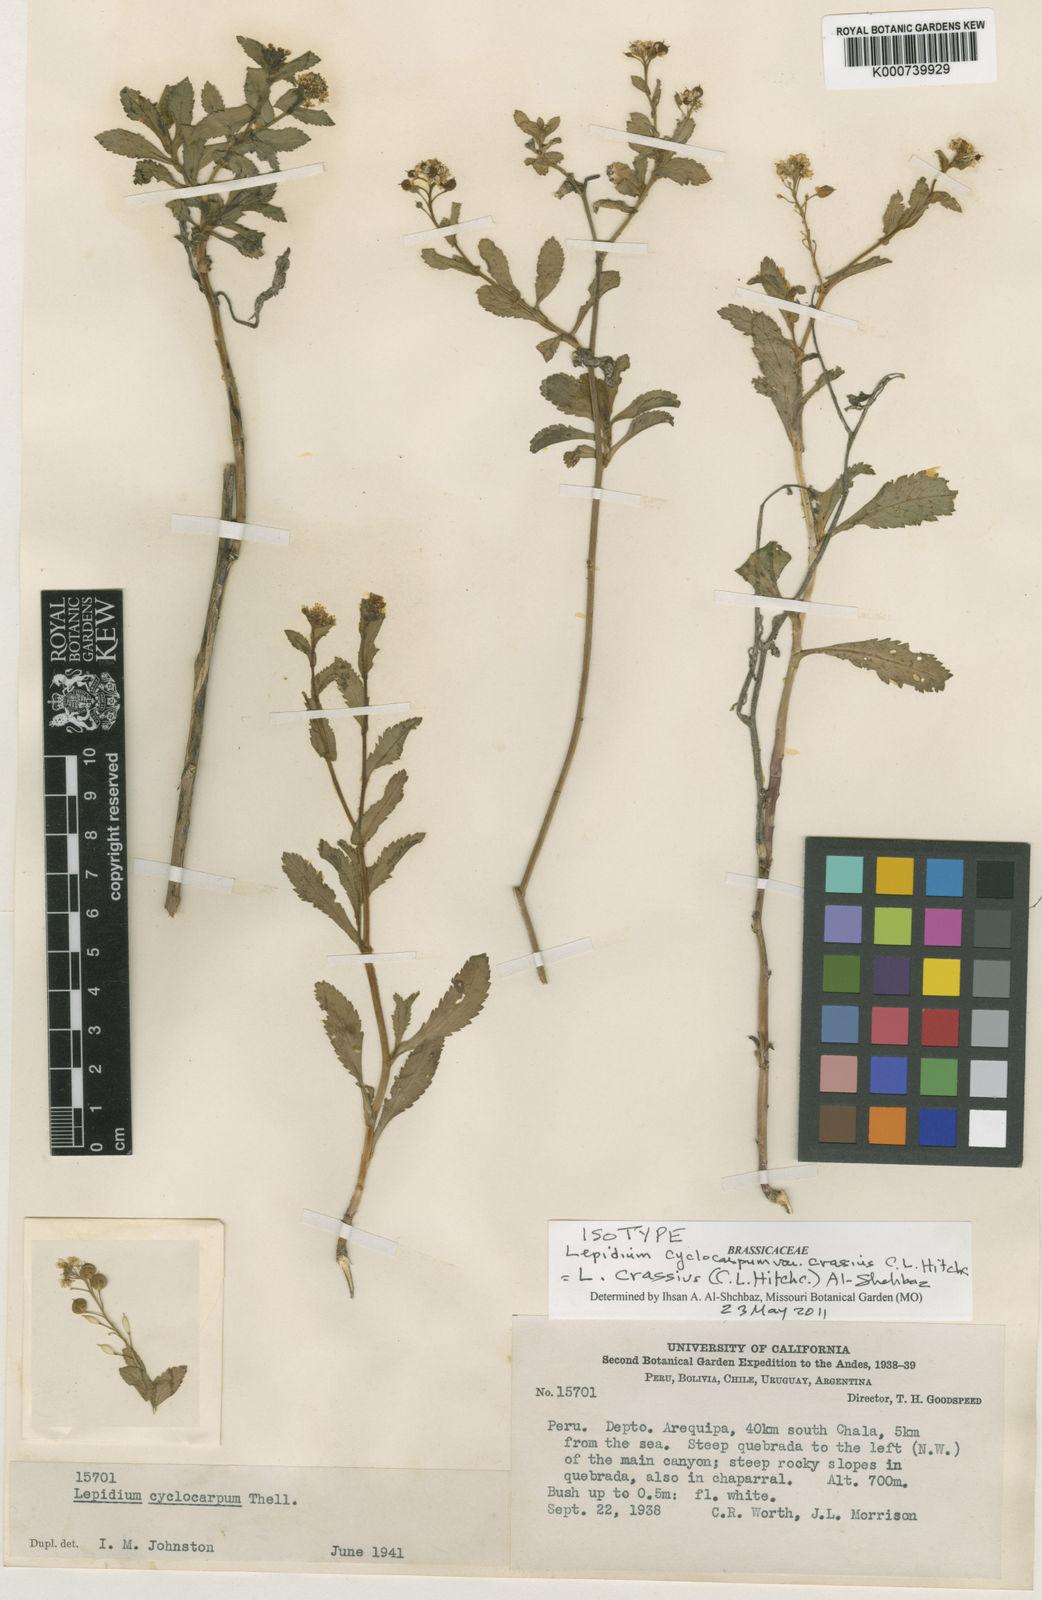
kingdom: Plantae
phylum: Tracheophyta
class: Magnoliopsida
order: Brassicales
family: Brassicaceae
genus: Lepidium
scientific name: Lepidium crassius
